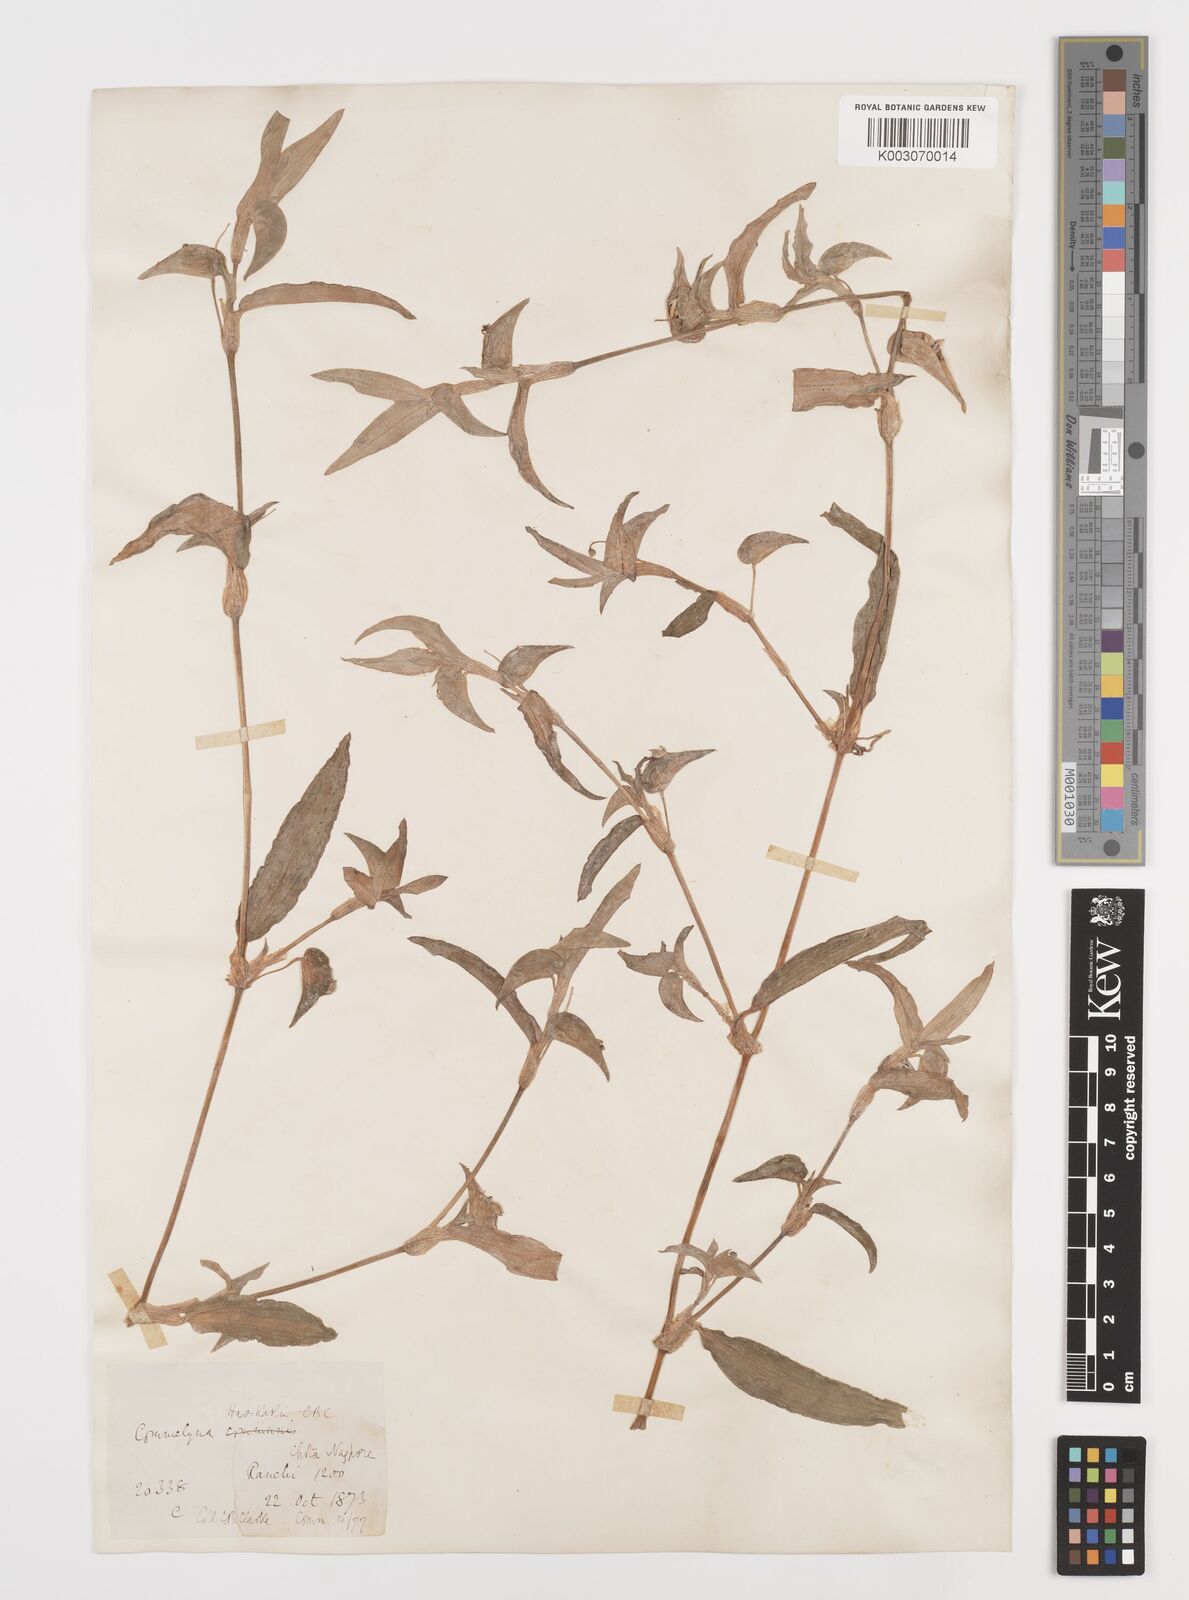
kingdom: Plantae
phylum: Tracheophyta
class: Liliopsida
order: Commelinales
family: Commelinaceae
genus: Commelina
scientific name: Commelina caroliniana
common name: Carolina dayflower
